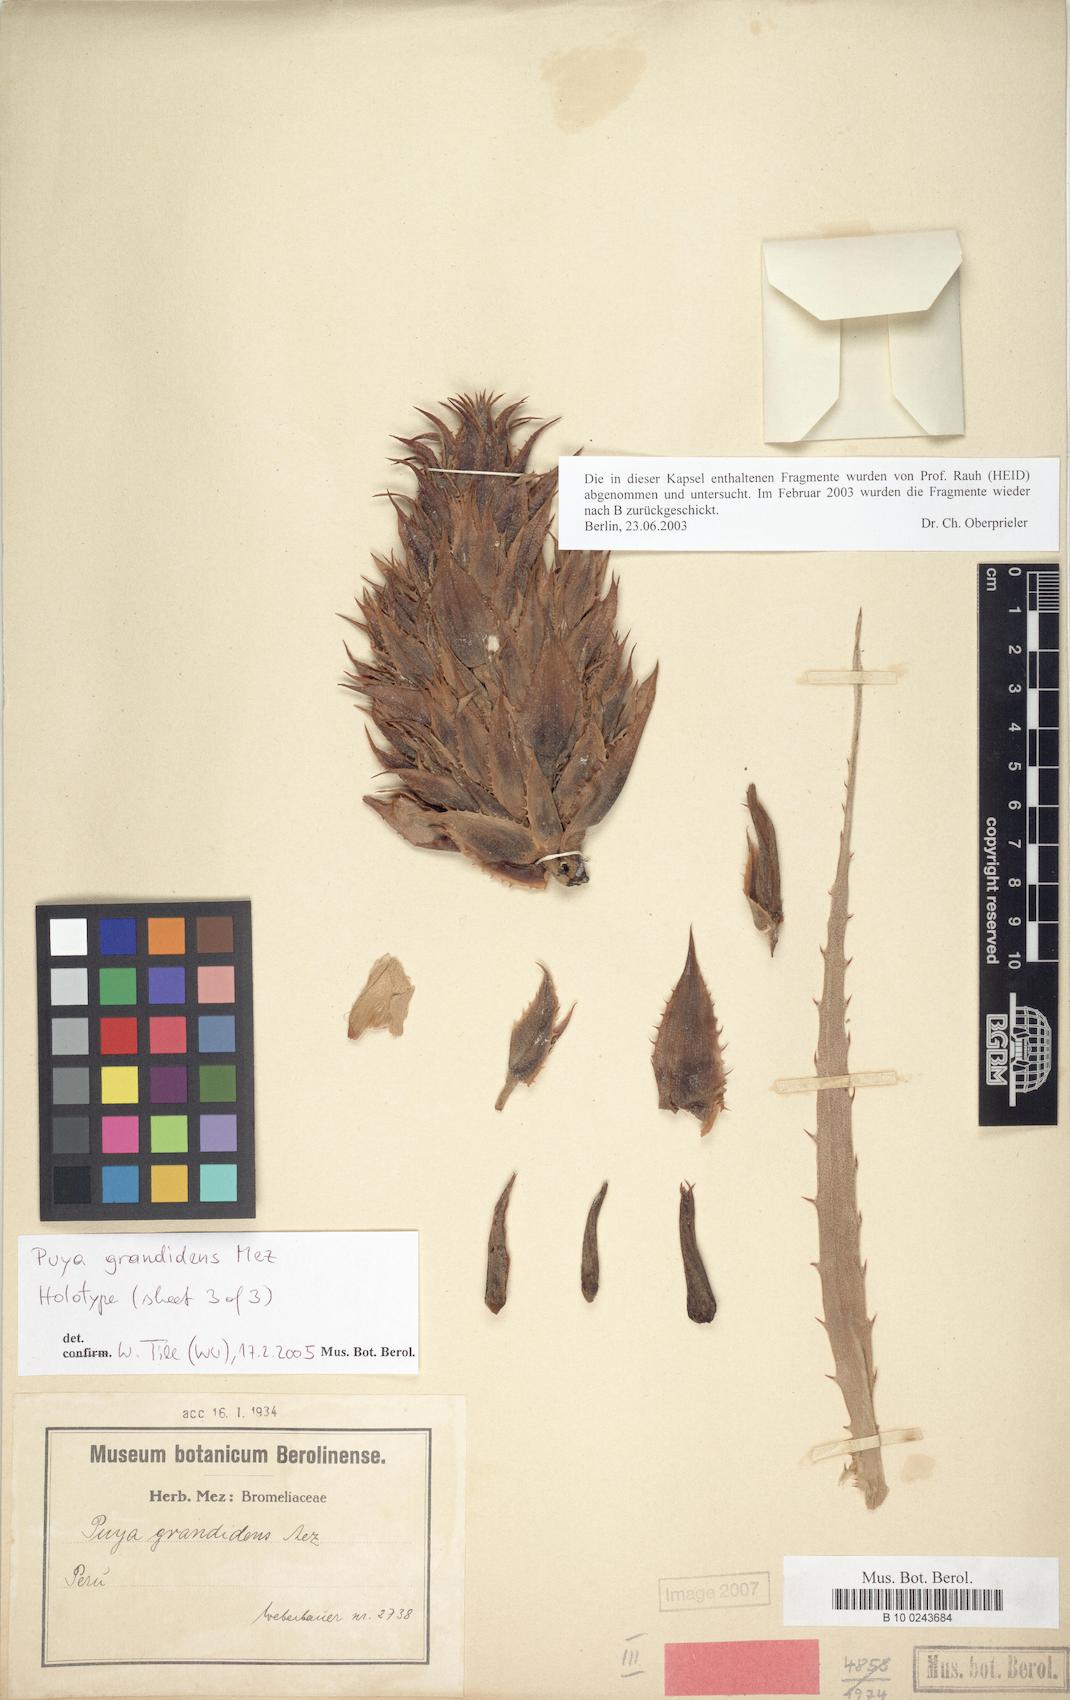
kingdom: Plantae
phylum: Tracheophyta
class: Liliopsida
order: Poales
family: Bromeliaceae
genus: Puya
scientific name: Puya grandidens
